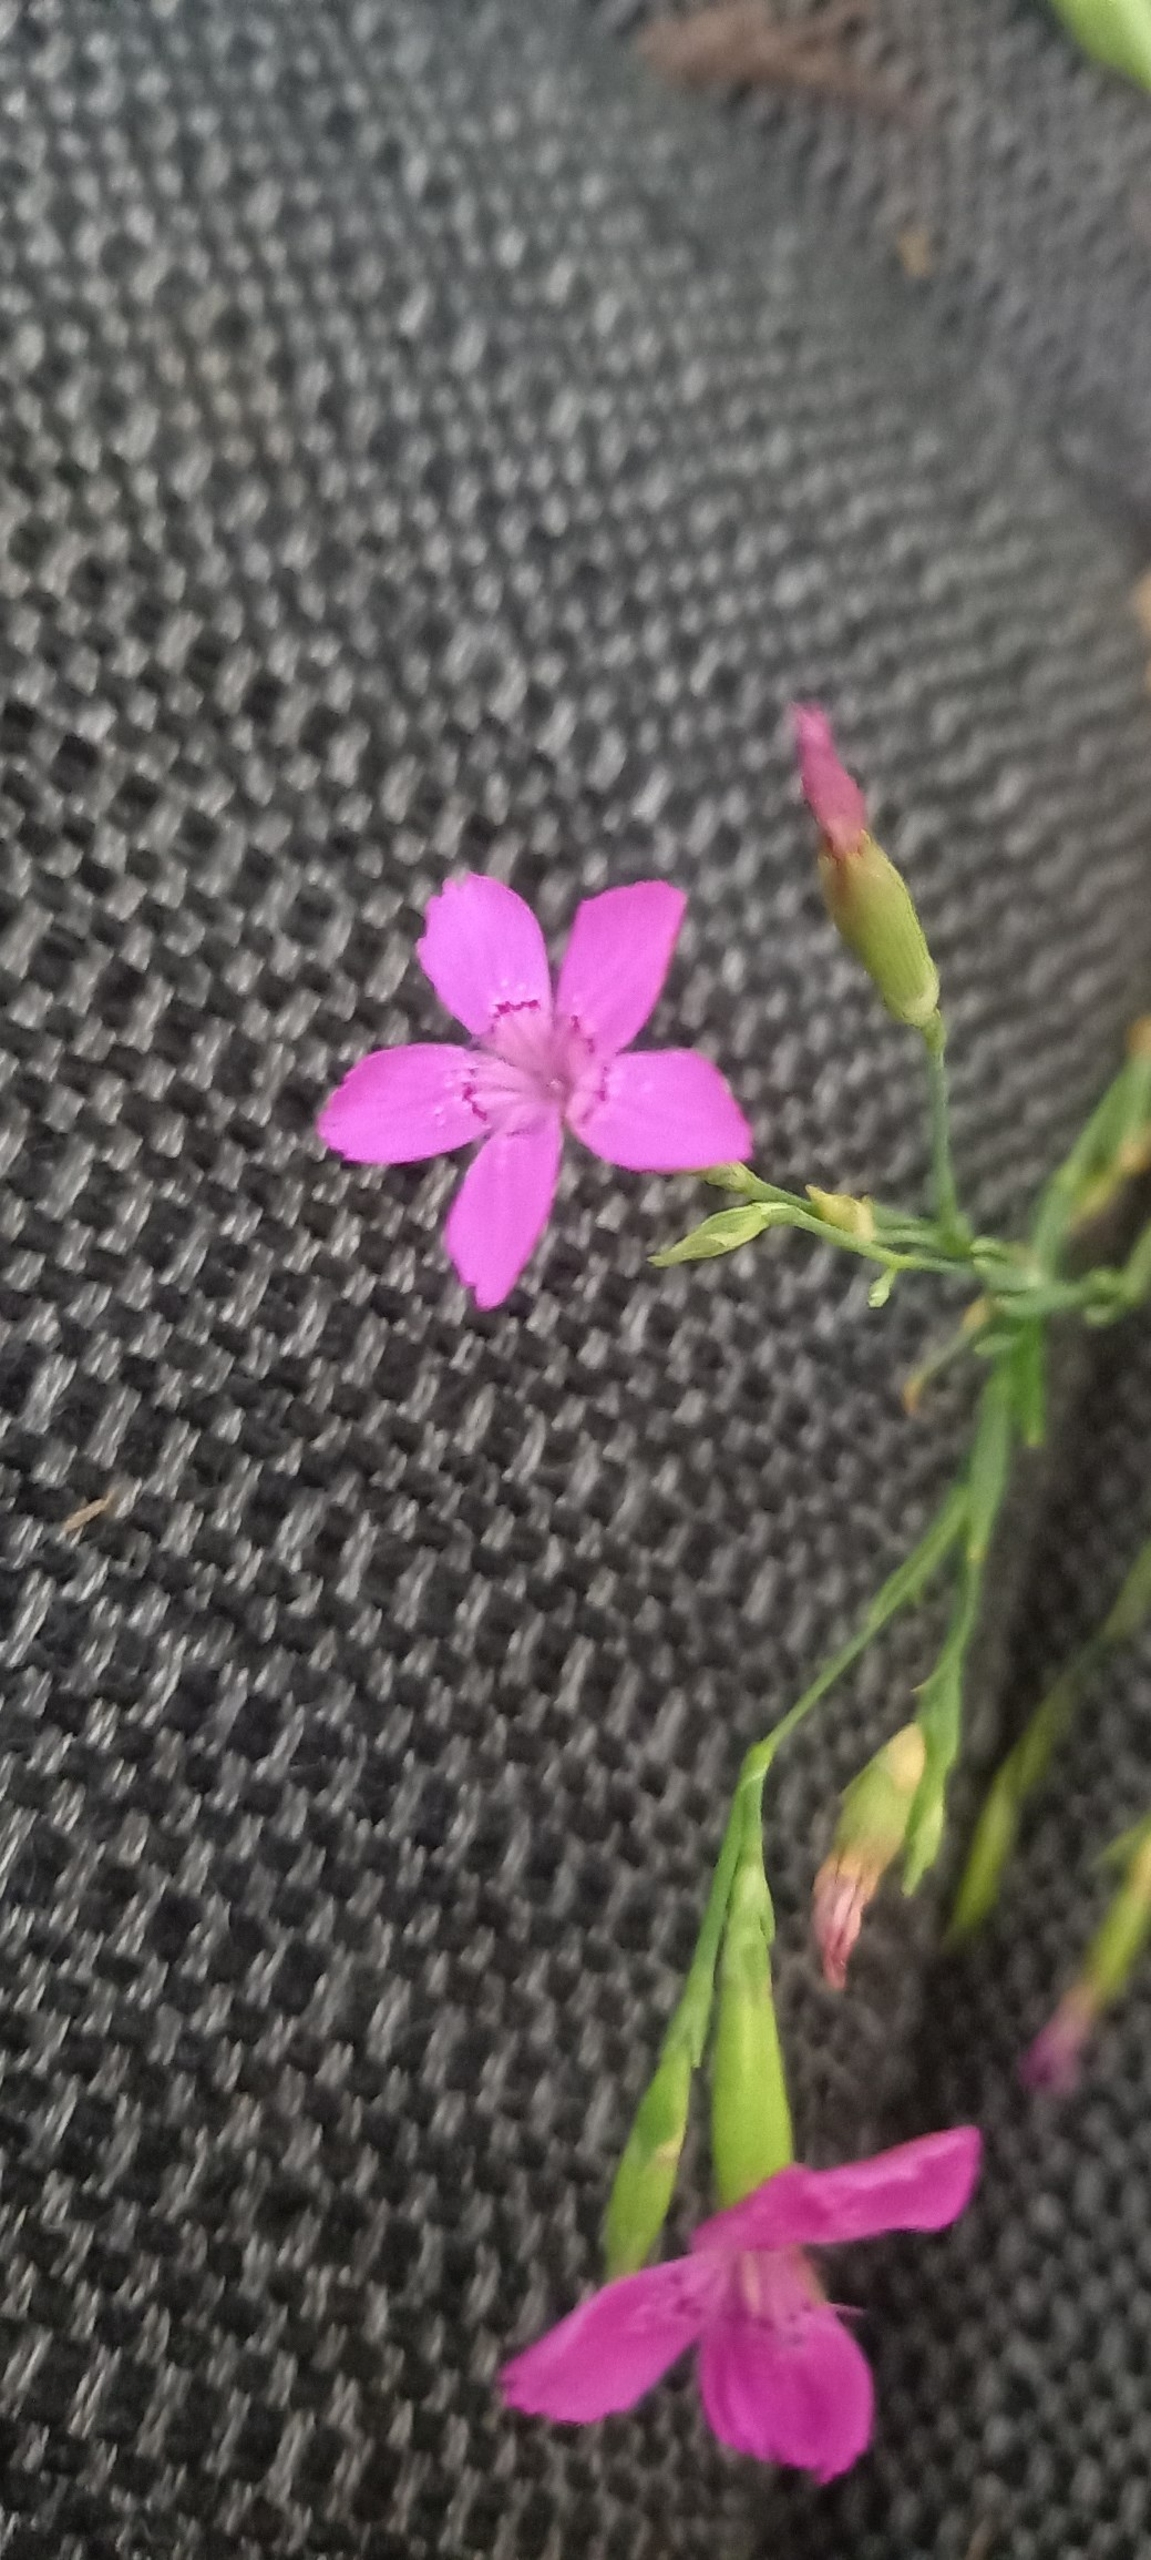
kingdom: Plantae
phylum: Tracheophyta
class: Magnoliopsida
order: Caryophyllales
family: Caryophyllaceae
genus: Dianthus
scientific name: Dianthus deltoides
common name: Bakke-nellike
